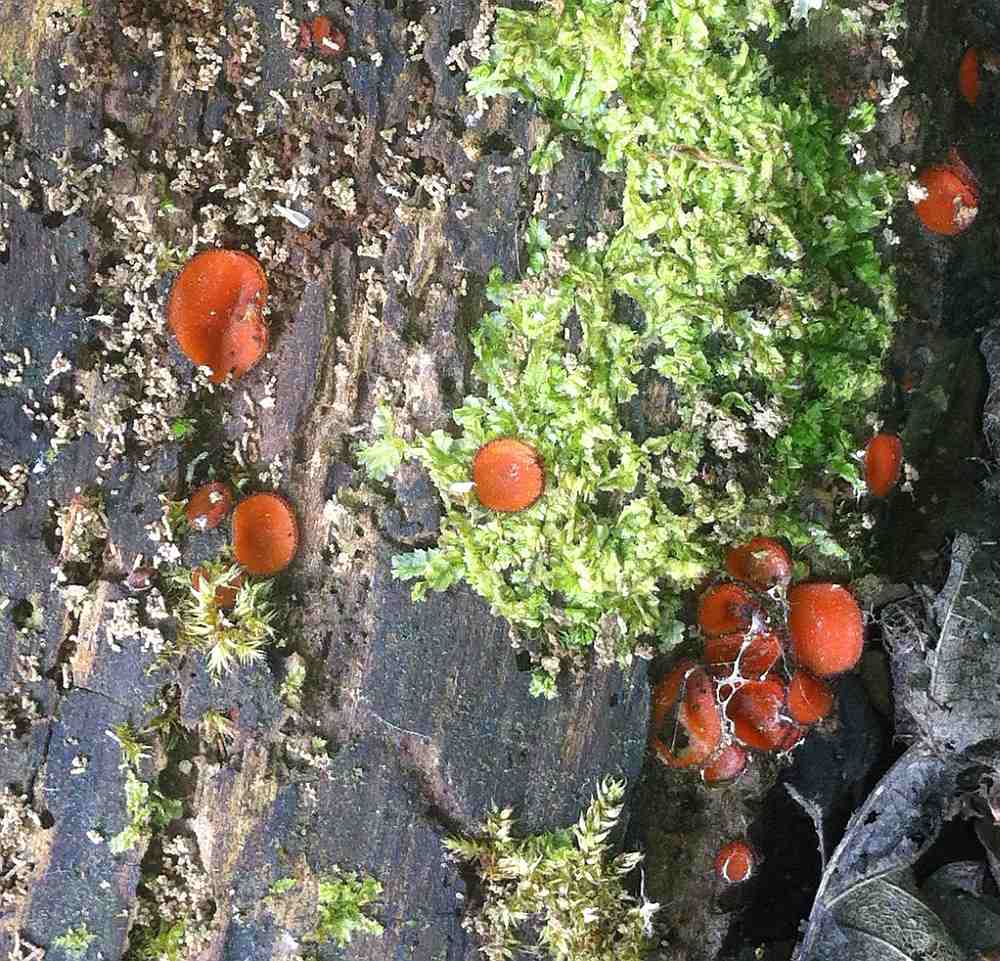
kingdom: Fungi
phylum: Ascomycota
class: Pezizomycetes
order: Pezizales
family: Pyronemataceae
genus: Scutellinia
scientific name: Scutellinia scutellata
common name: frynset skjoldbæger
